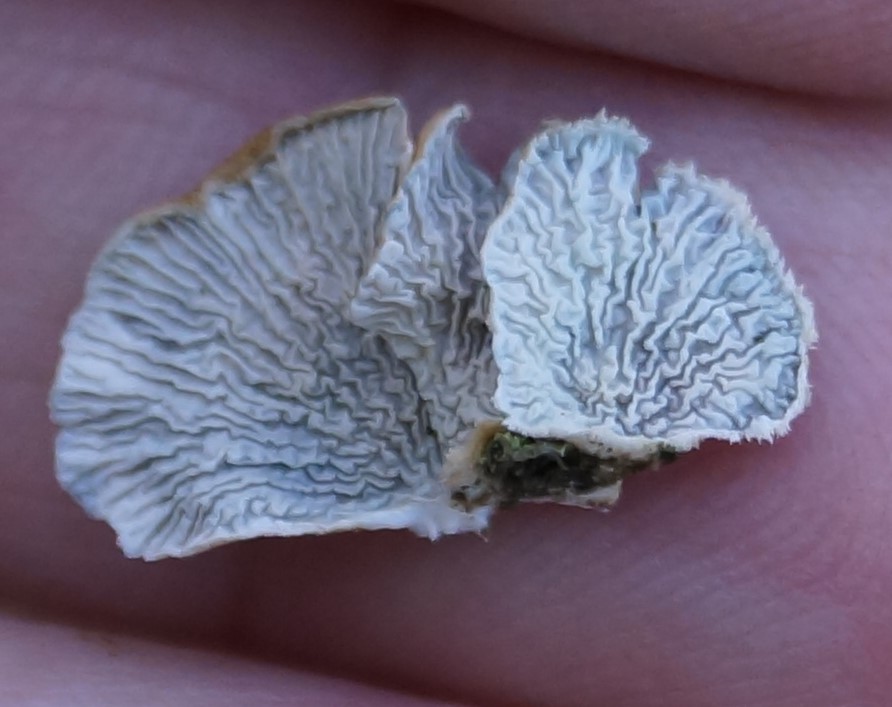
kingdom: Fungi
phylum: Basidiomycota
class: Agaricomycetes
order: Amylocorticiales
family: Amylocorticiaceae
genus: Plicaturopsis
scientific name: Plicaturopsis crispa
